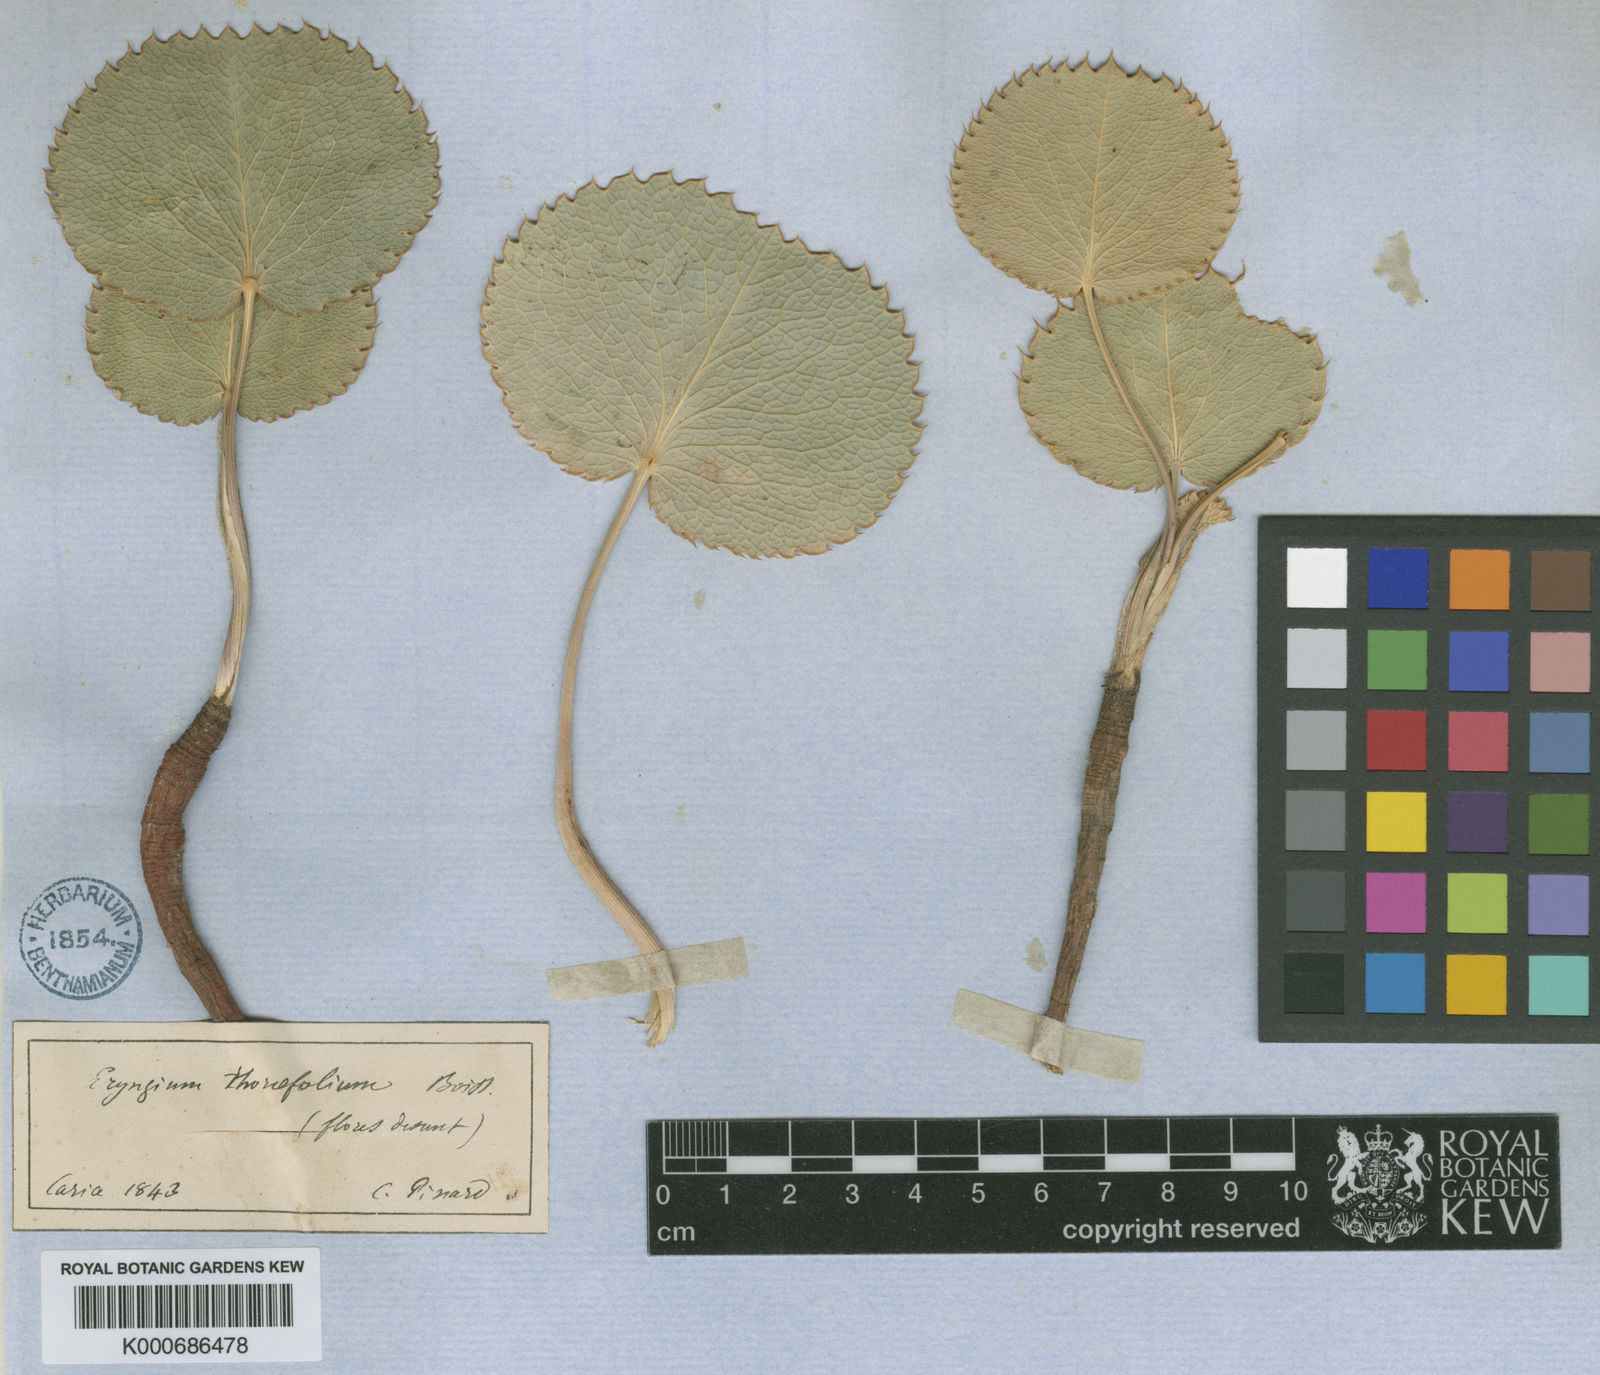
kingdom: Plantae
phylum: Tracheophyta
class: Magnoliopsida
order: Apiales
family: Apiaceae
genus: Eryngium
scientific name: Eryngium thorifolium
